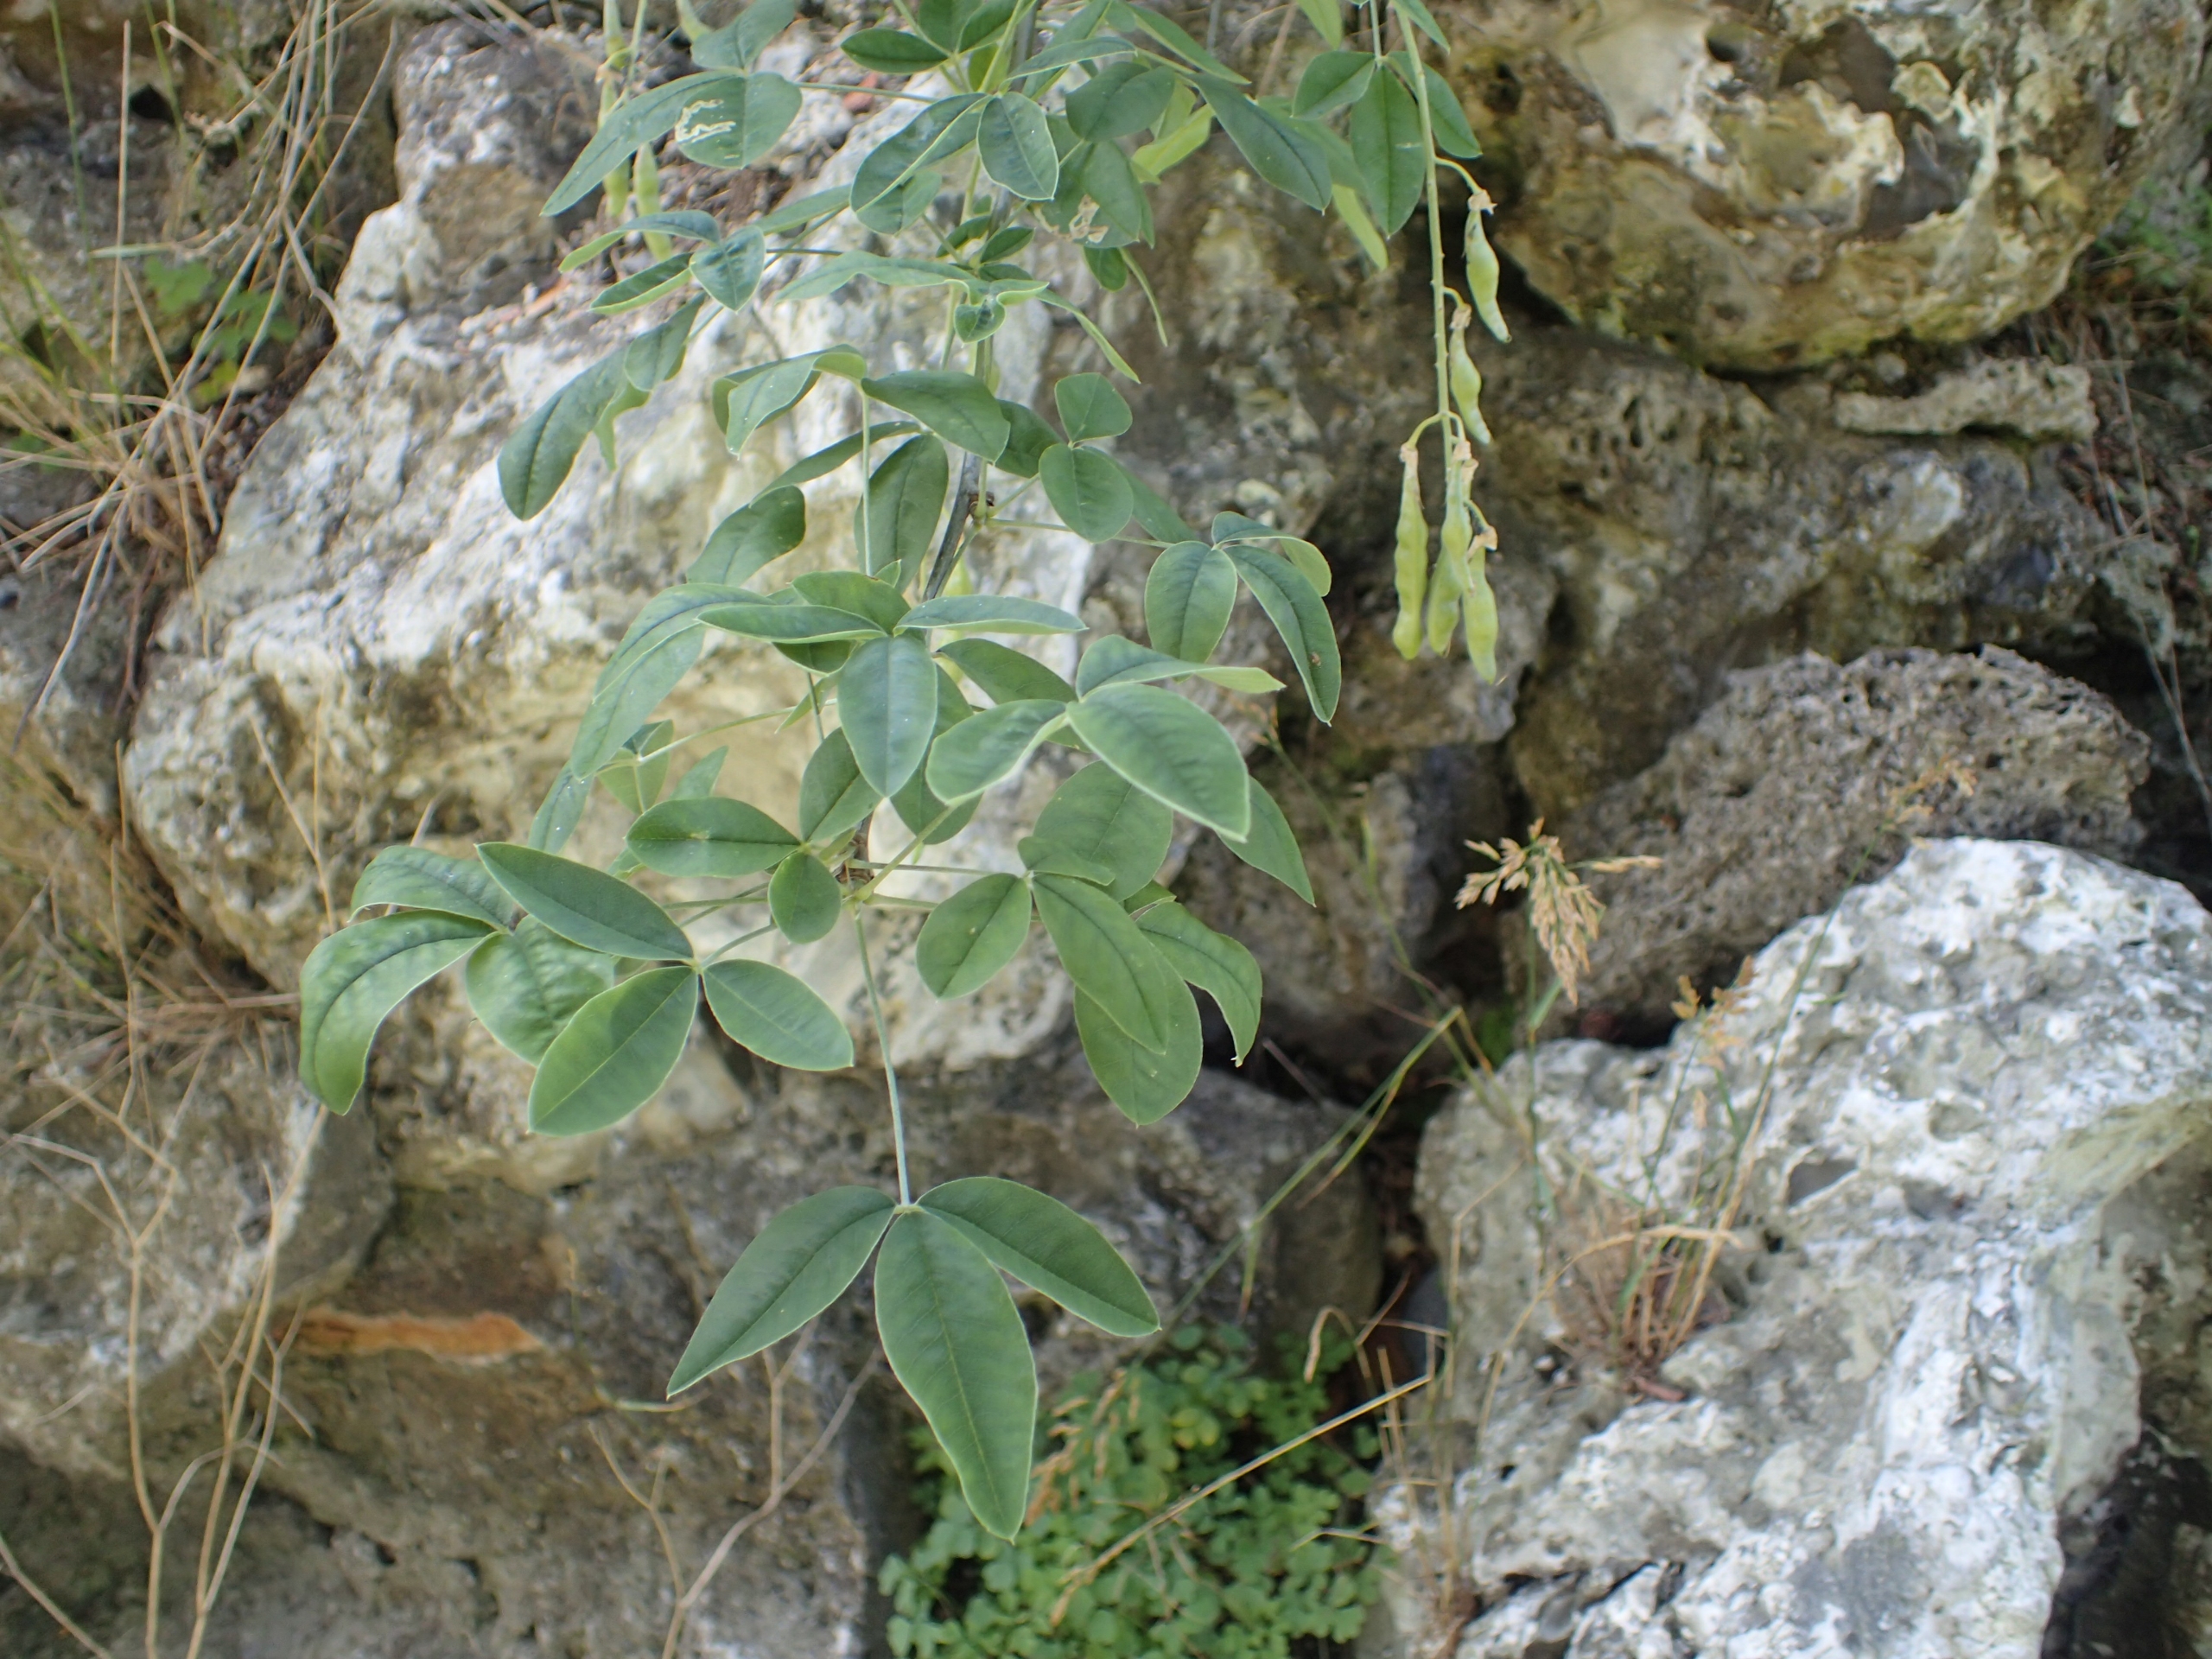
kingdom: Plantae
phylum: Tracheophyta
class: Magnoliopsida
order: Fabales
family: Fabaceae
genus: Laburnum
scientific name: Laburnum anagyroides
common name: Guldregn
